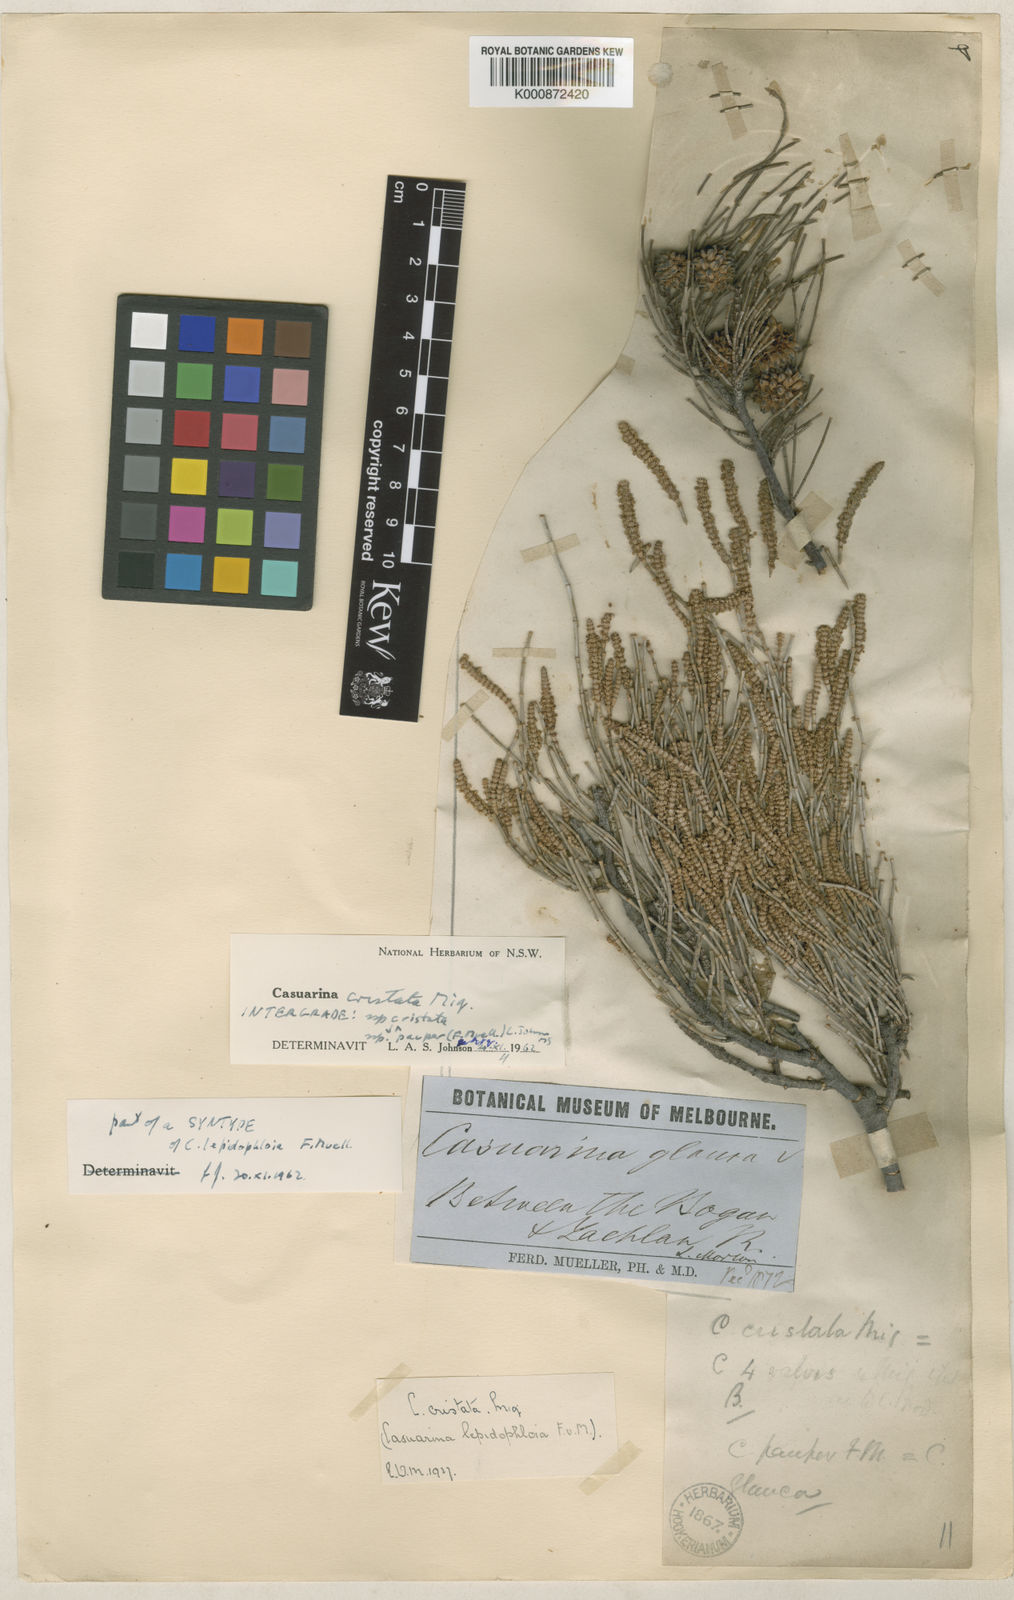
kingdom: Plantae
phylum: Tracheophyta
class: Magnoliopsida
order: Fagales
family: Casuarinaceae
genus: Casuarina
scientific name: Casuarina pauper
